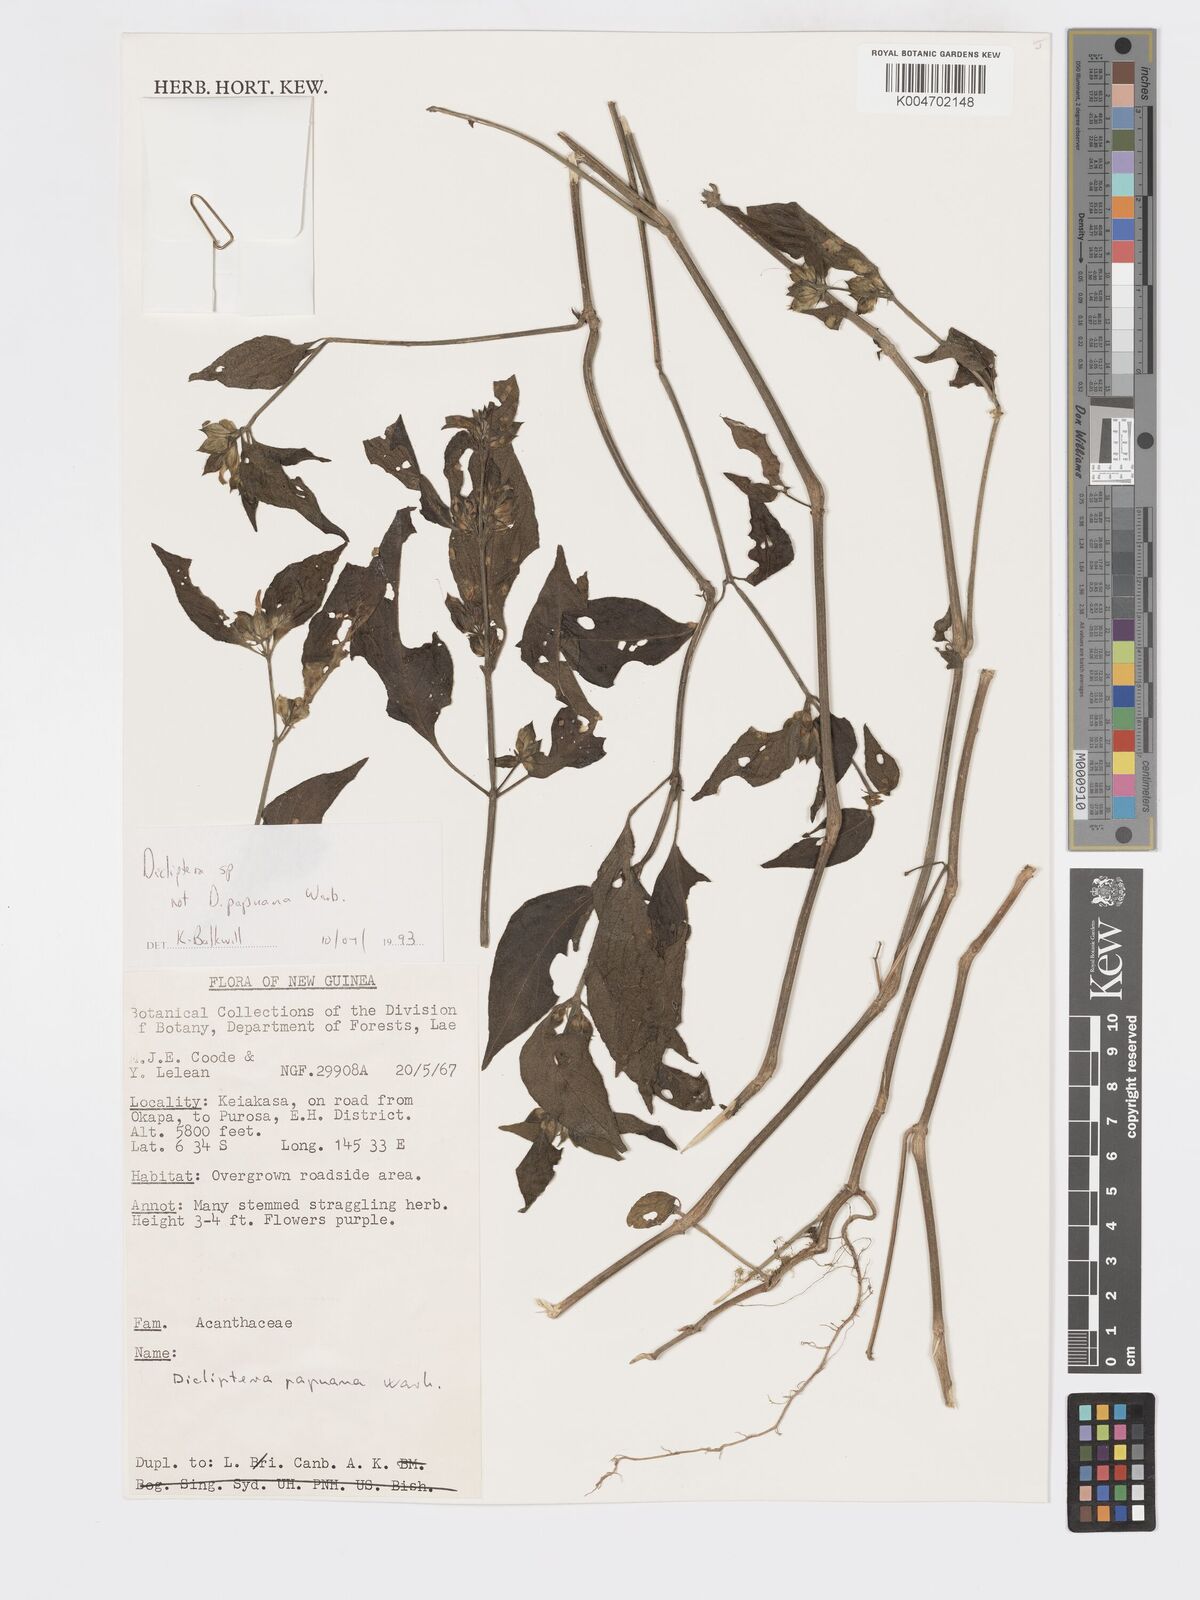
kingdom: Plantae
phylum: Tracheophyta
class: Magnoliopsida
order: Lamiales
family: Acanthaceae
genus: Dicliptera
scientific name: Dicliptera
